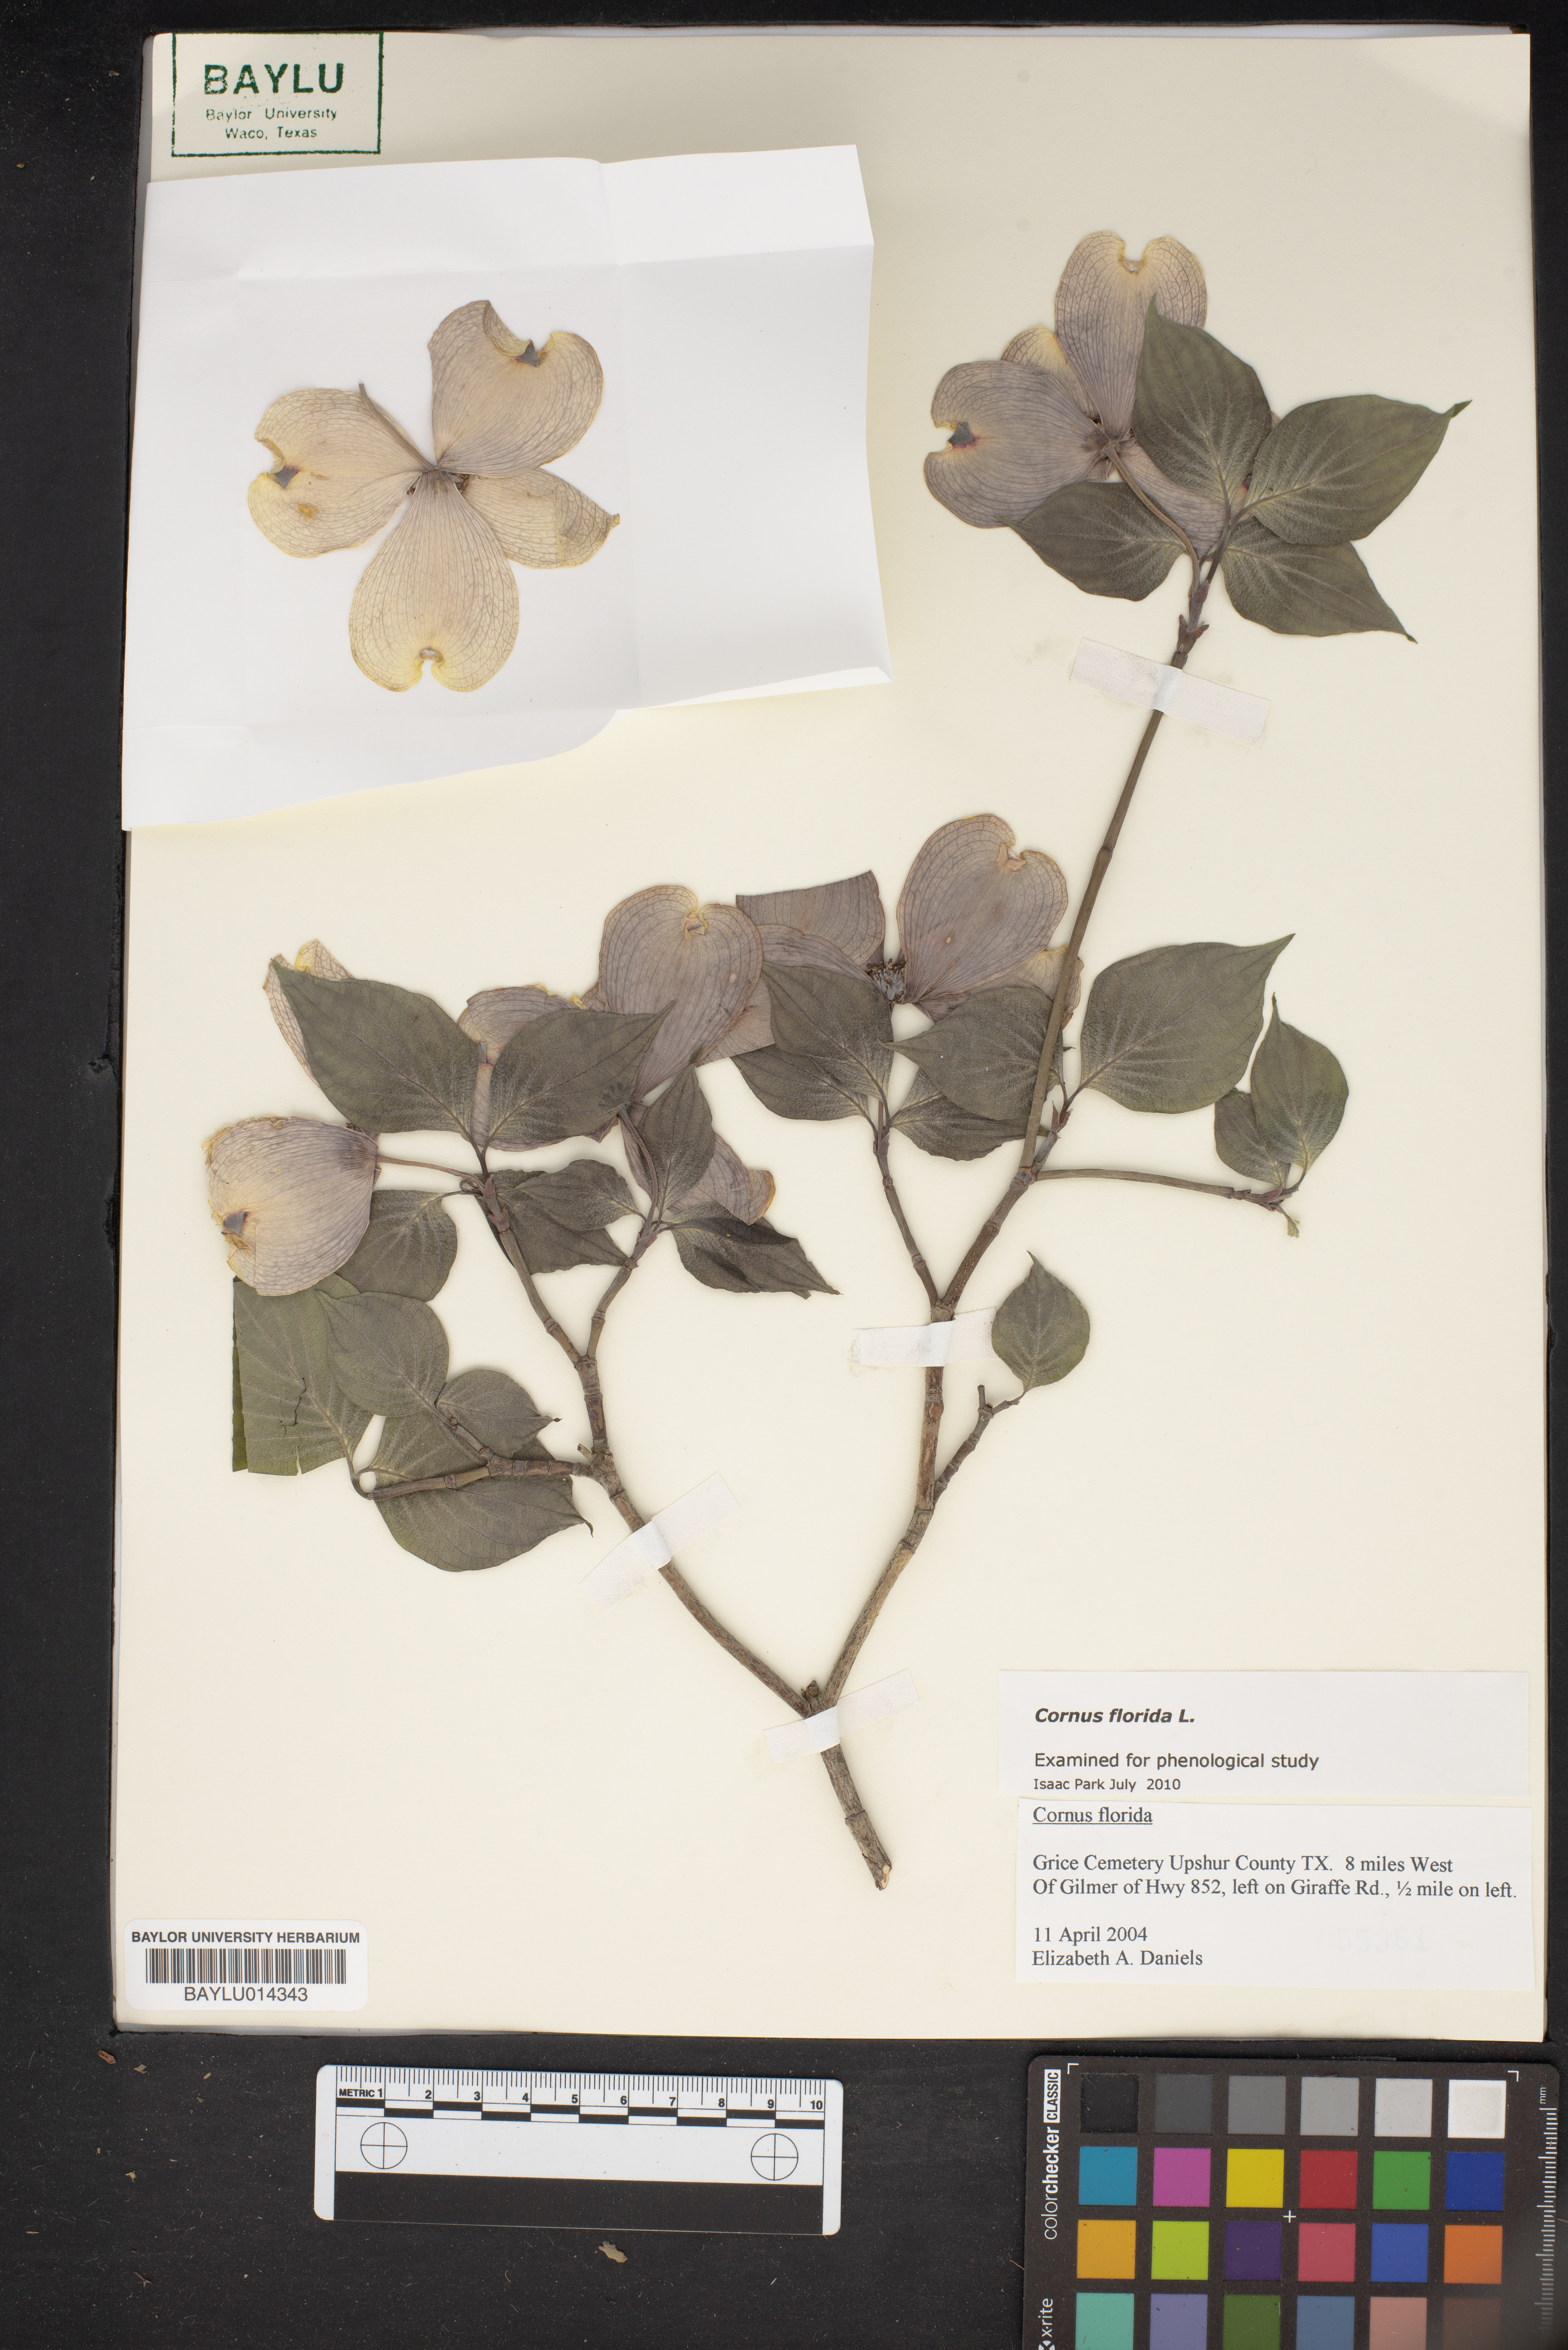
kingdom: Plantae
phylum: Tracheophyta
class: Magnoliopsida
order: Cornales
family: Cornaceae
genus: Cornus
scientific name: Cornus florida
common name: Flowering dogwood
